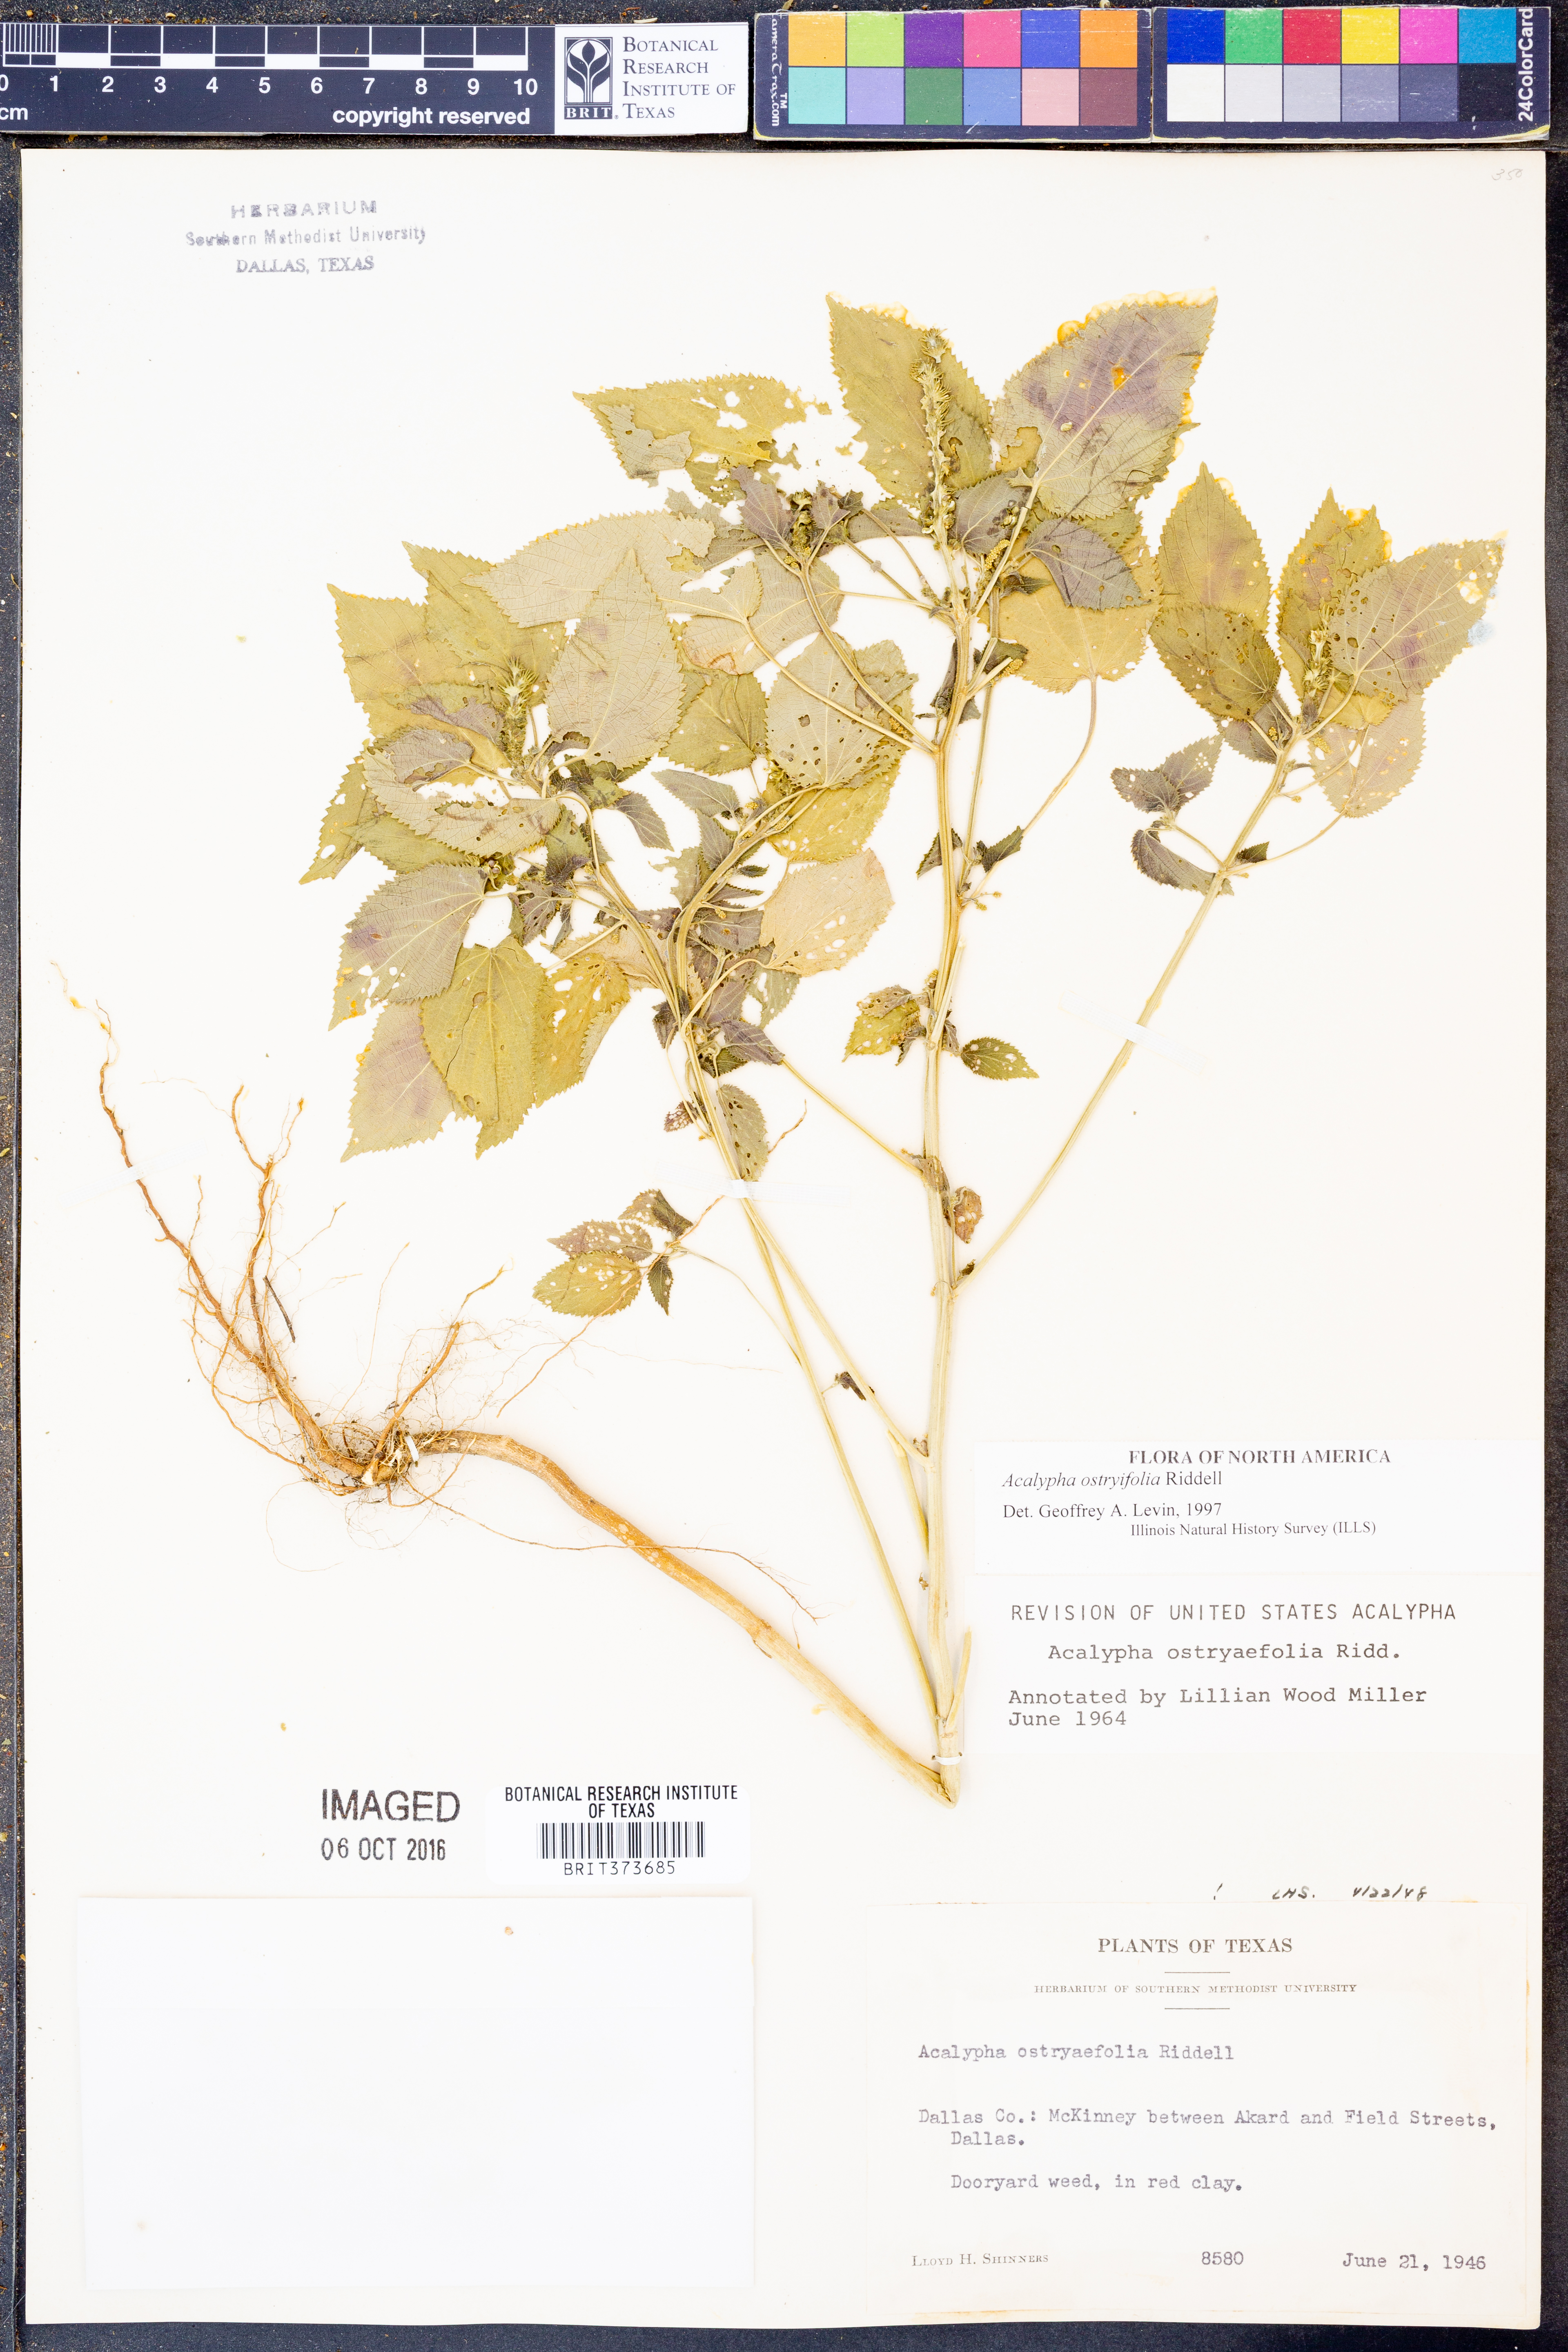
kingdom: Plantae
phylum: Tracheophyta
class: Magnoliopsida
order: Malpighiales
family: Euphorbiaceae
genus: Acalypha
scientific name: Acalypha persimilis
